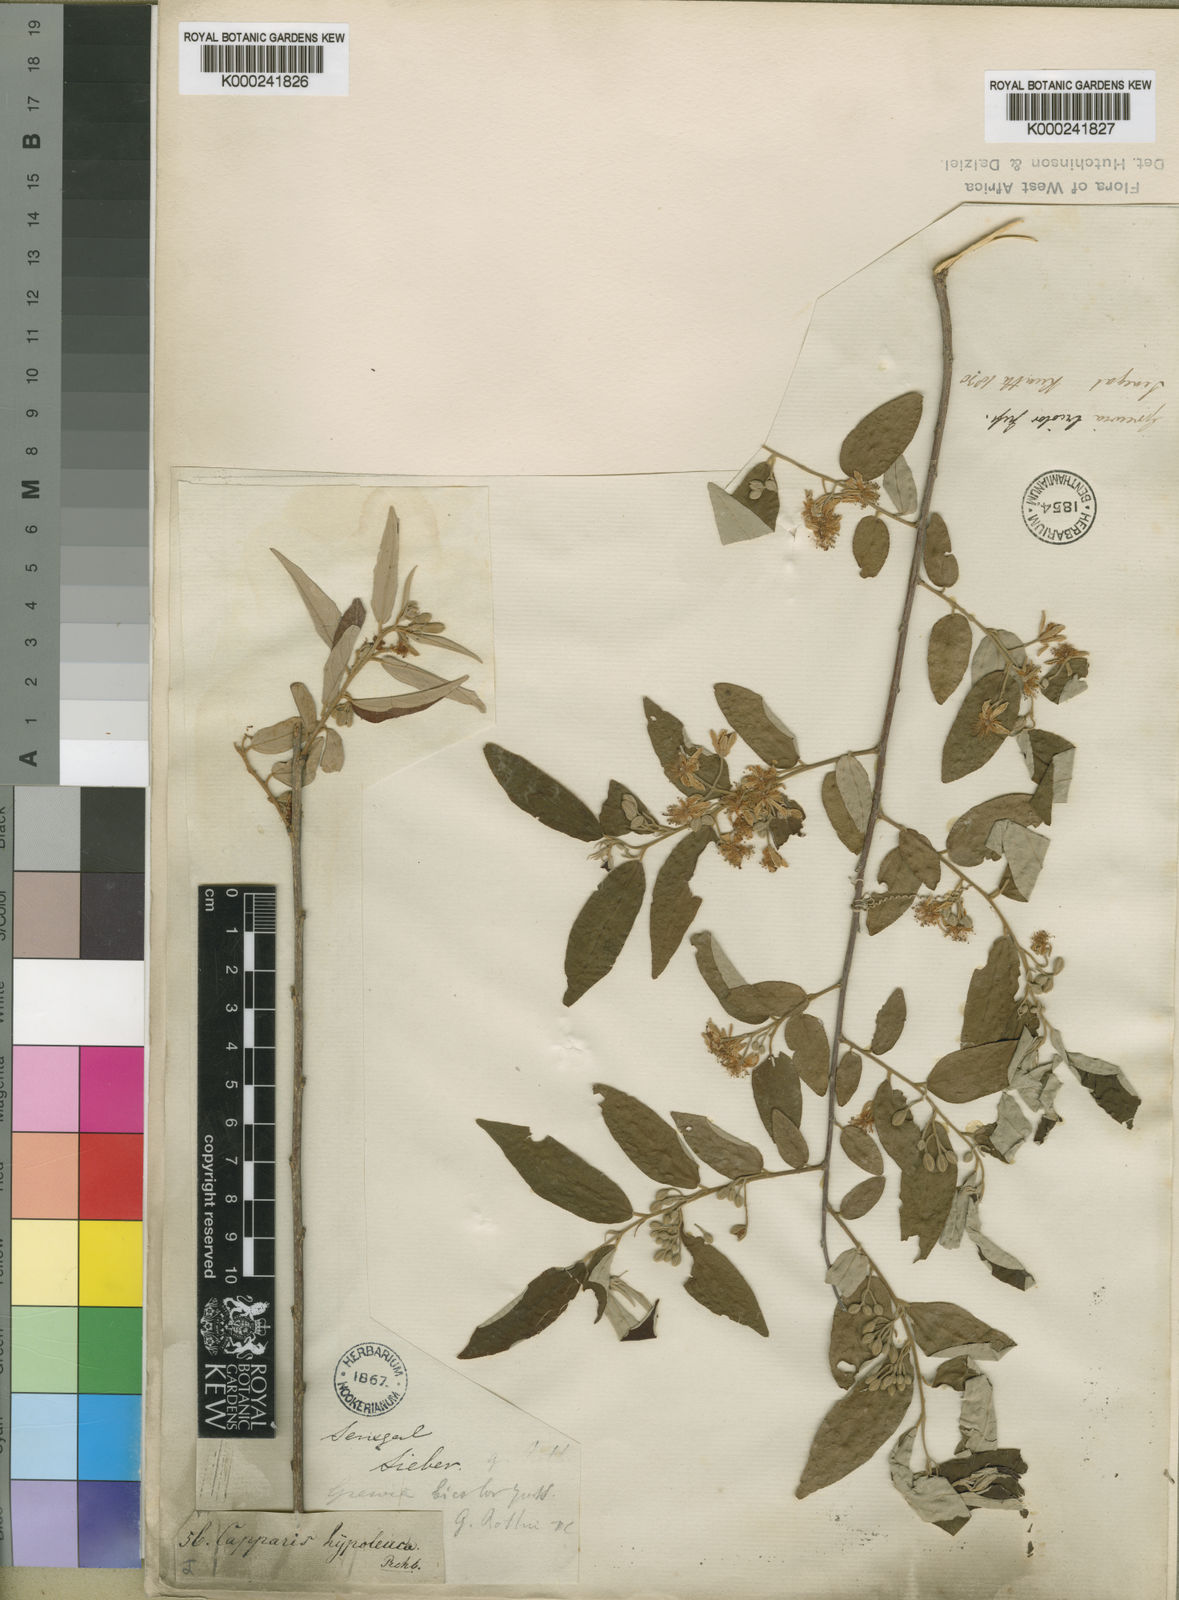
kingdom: Plantae
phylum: Tracheophyta
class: Magnoliopsida
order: Malvales
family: Malvaceae
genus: Grewia
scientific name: Grewia bicolor
